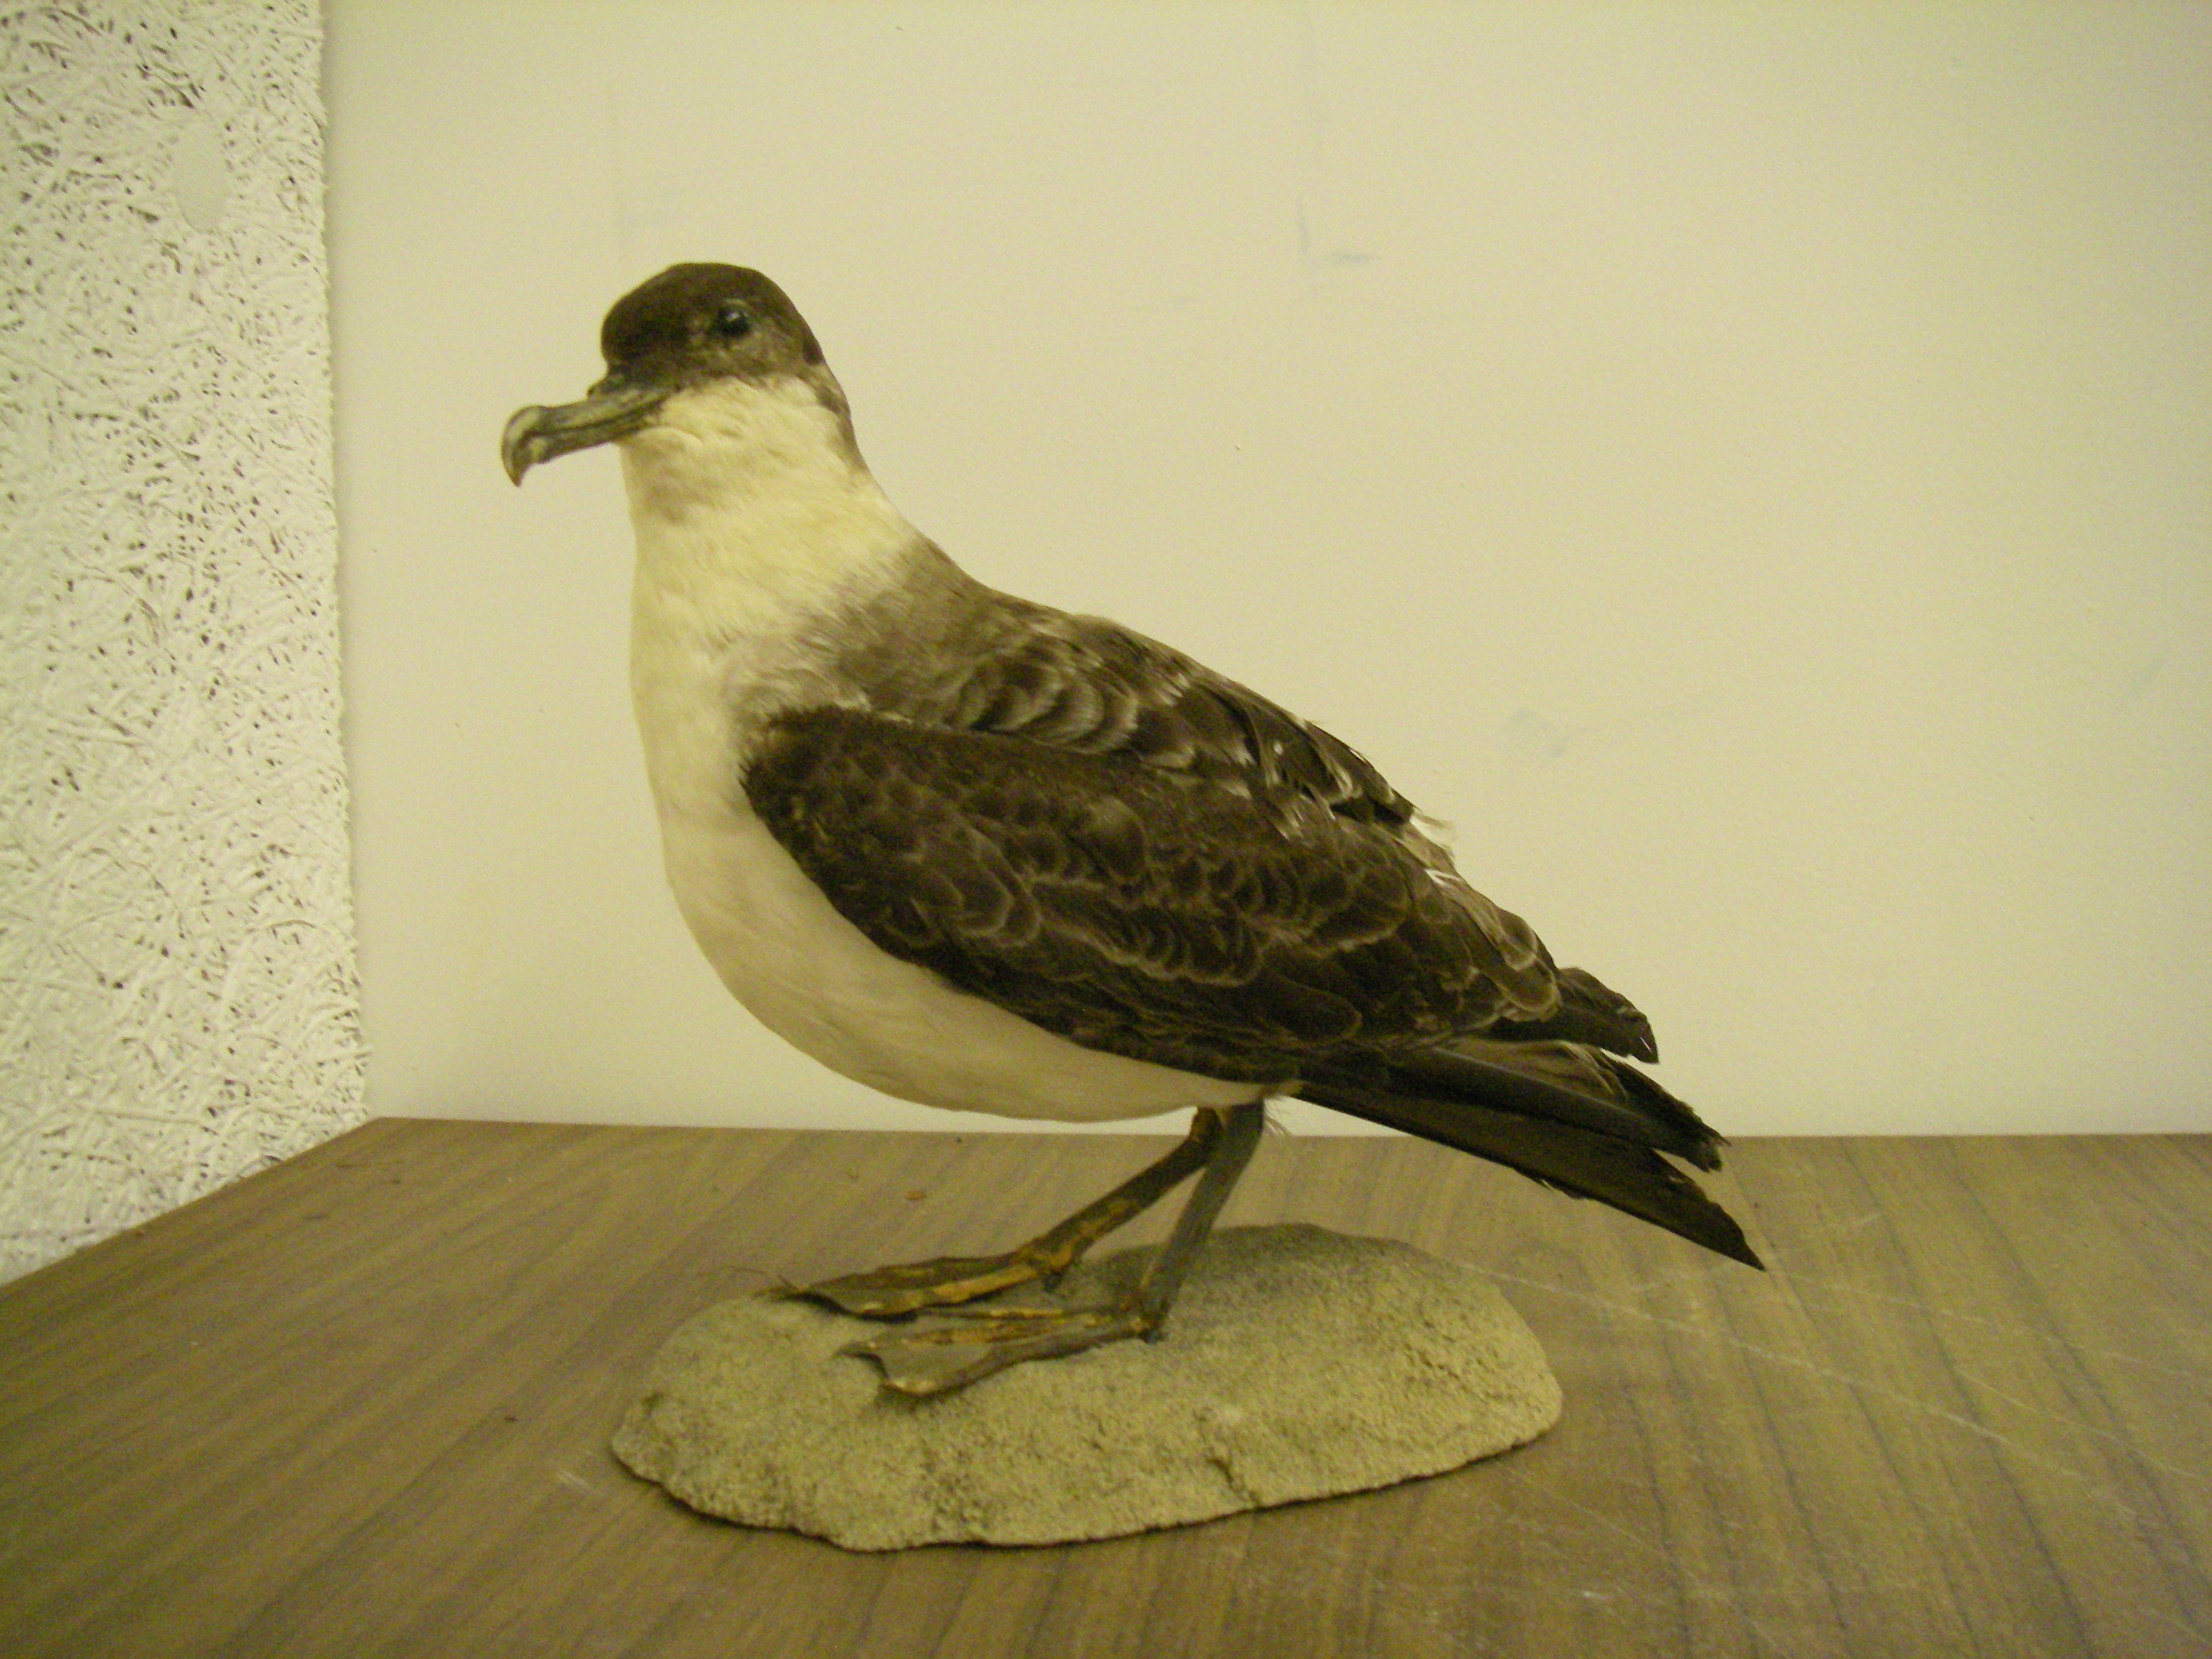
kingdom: Animalia
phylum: Chordata
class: Aves
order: Procellariiformes
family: Procellariidae
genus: Puffinus
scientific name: Puffinus gravis
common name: Great shearwater
